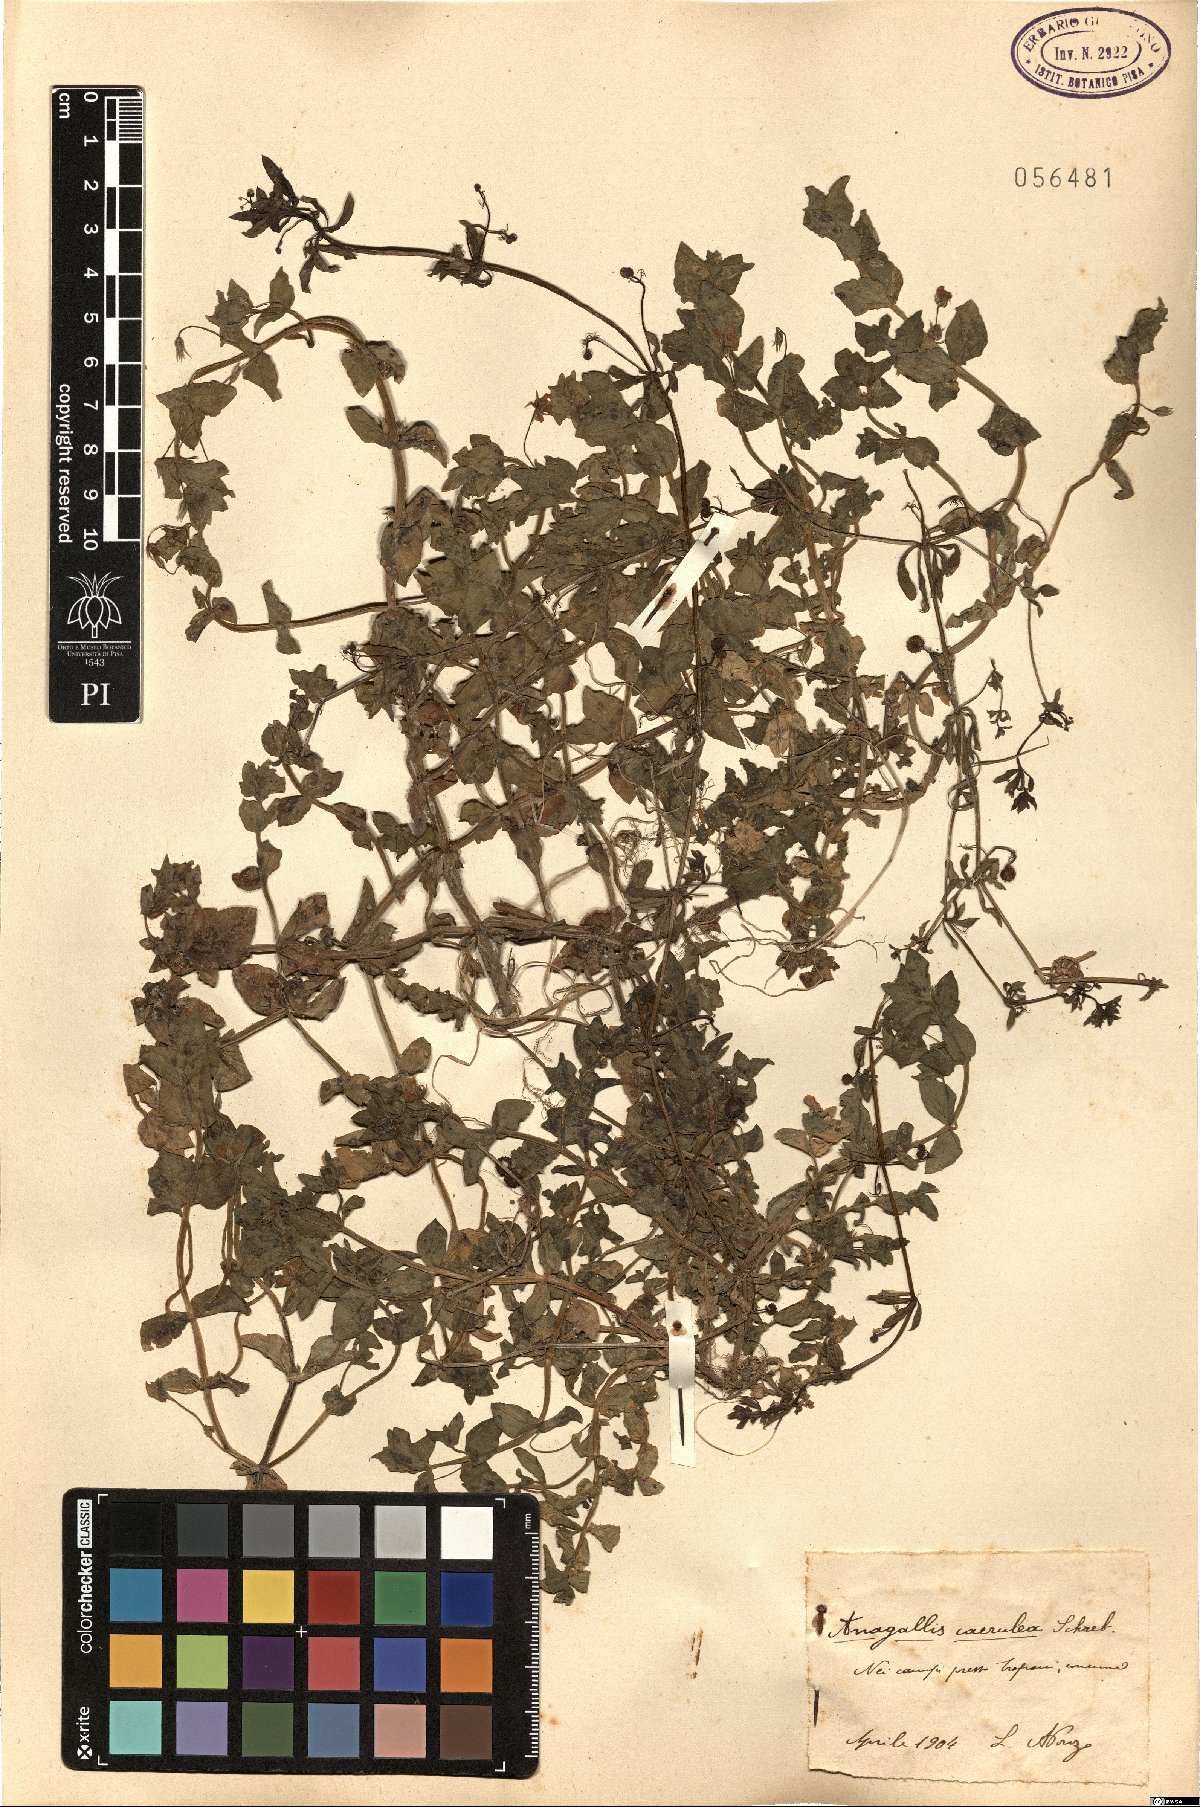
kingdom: Plantae
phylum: Tracheophyta
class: Magnoliopsida
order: Ericales
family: Primulaceae
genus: Lysimachia
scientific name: Lysimachia loeflingii
